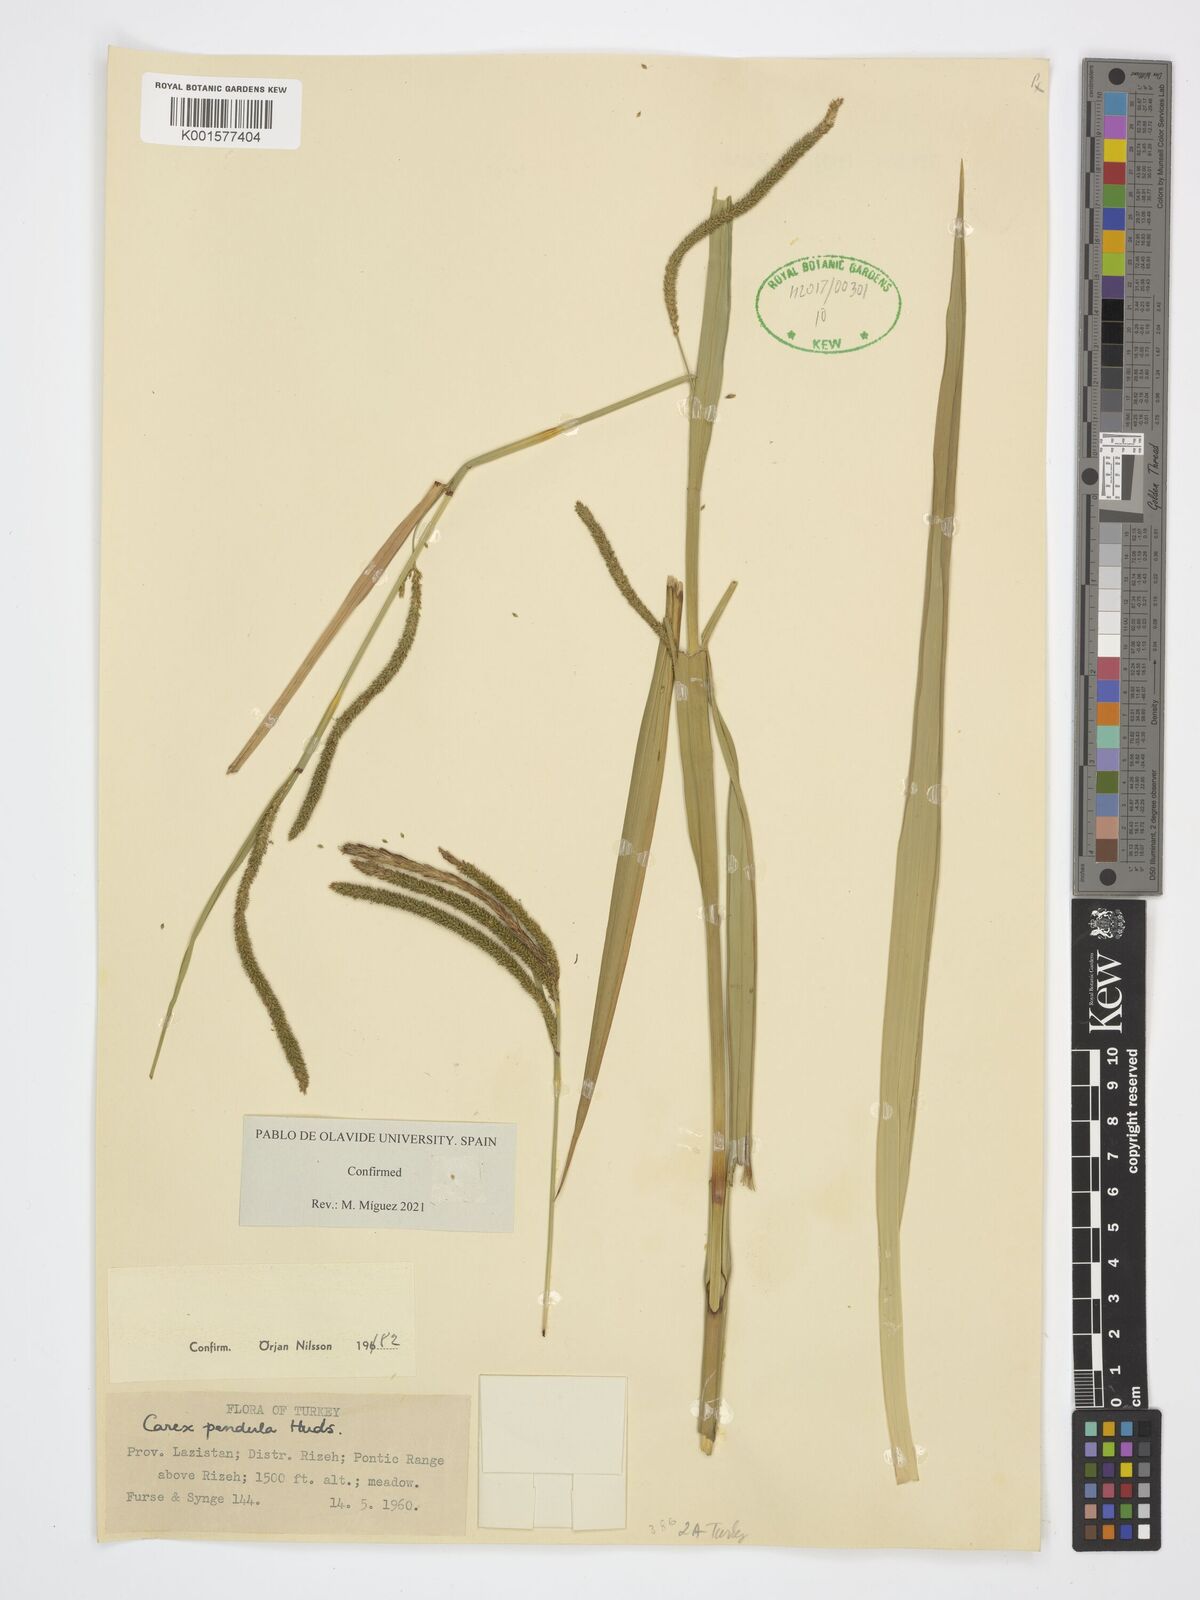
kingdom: Plantae
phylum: Tracheophyta
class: Liliopsida
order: Poales
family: Cyperaceae
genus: Carex
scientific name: Carex pendula
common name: Pendulous sedge
